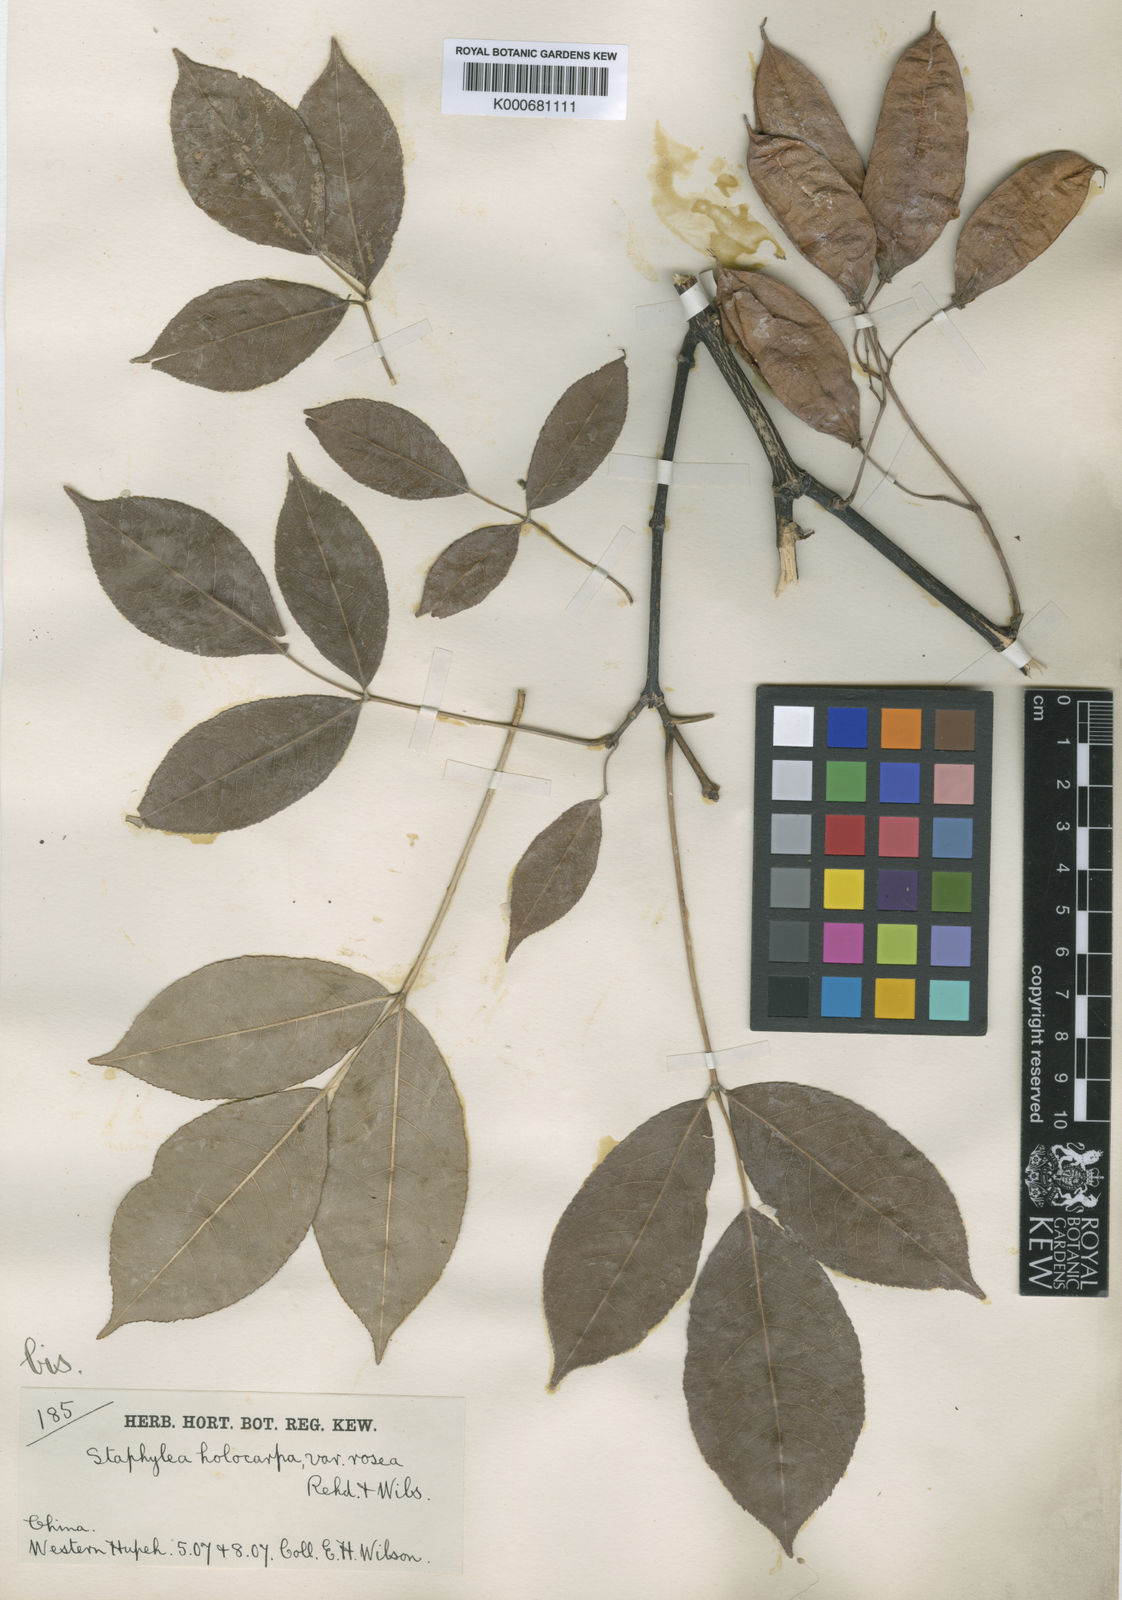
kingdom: Plantae
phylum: Tracheophyta
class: Magnoliopsida
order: Crossosomatales
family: Staphyleaceae
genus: Staphylea
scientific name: Staphylea holocarpa
